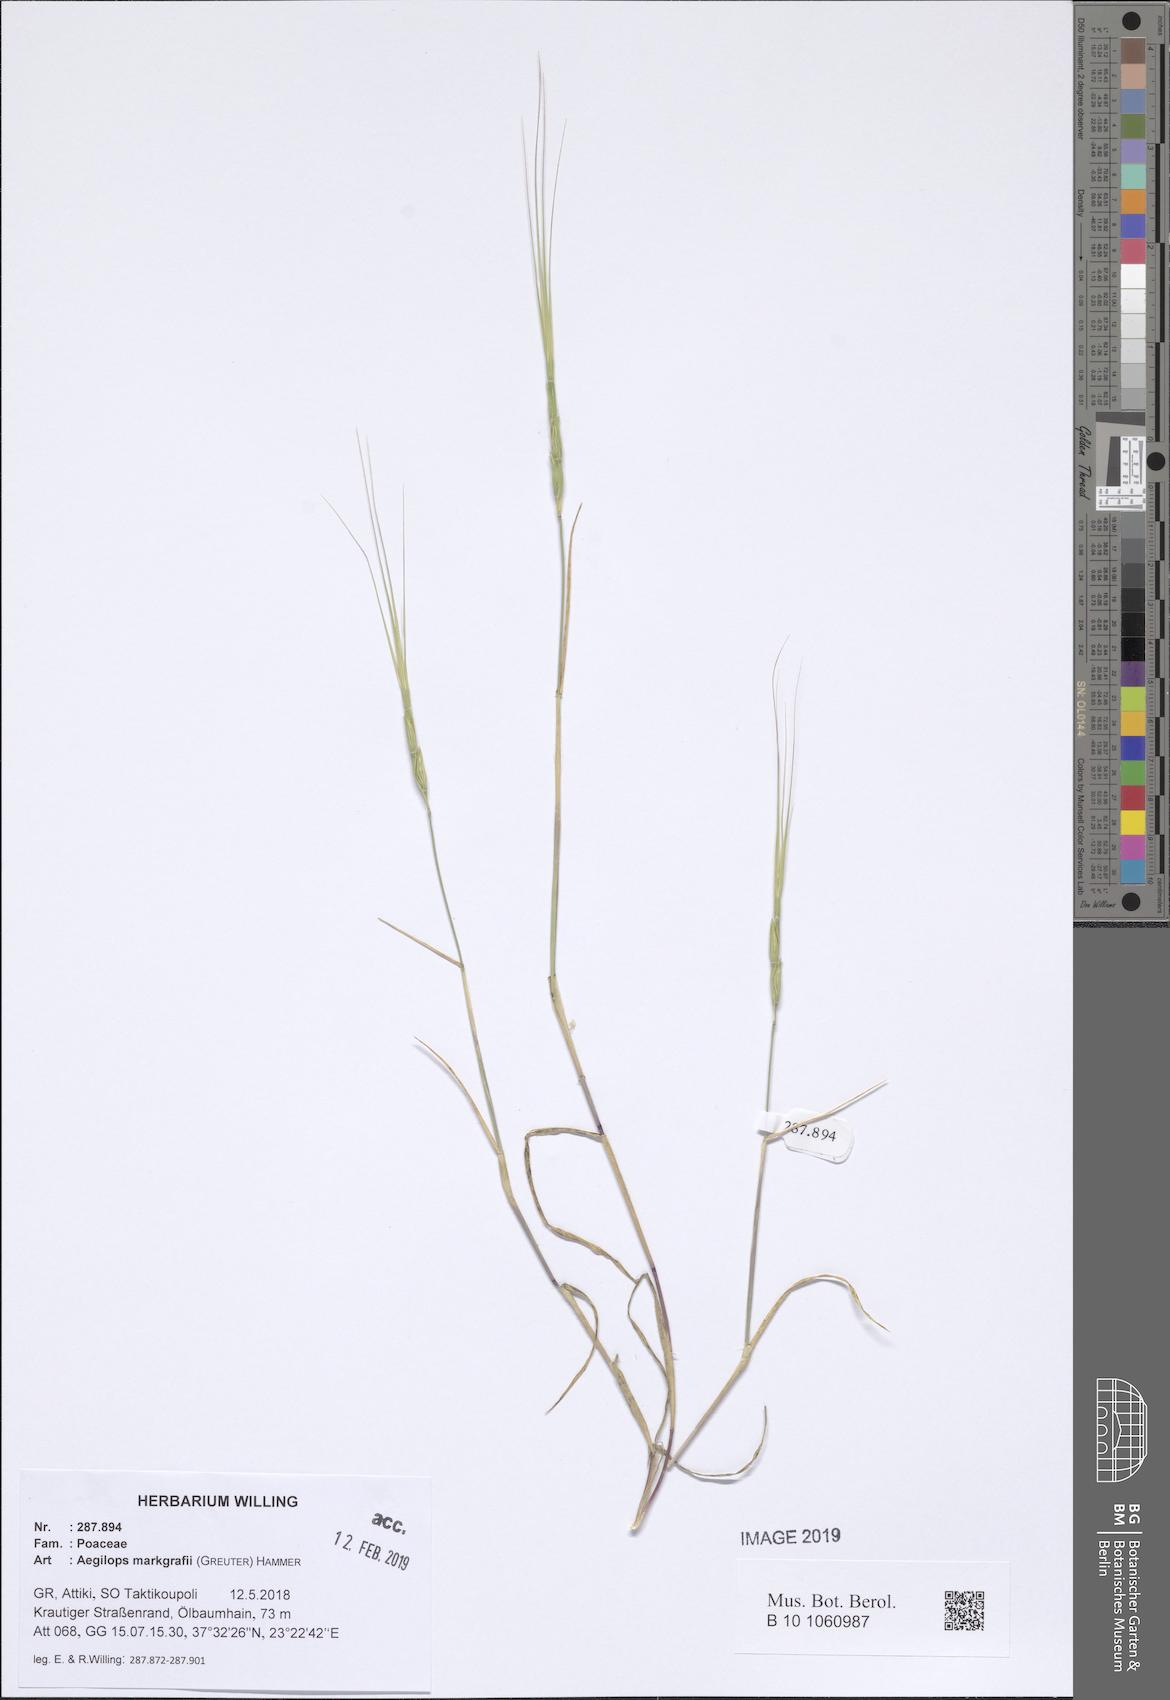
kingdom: Plantae
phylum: Tracheophyta
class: Liliopsida
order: Poales
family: Poaceae
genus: Aegilops
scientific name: Aegilops caudata
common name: Cretan hard-grass
